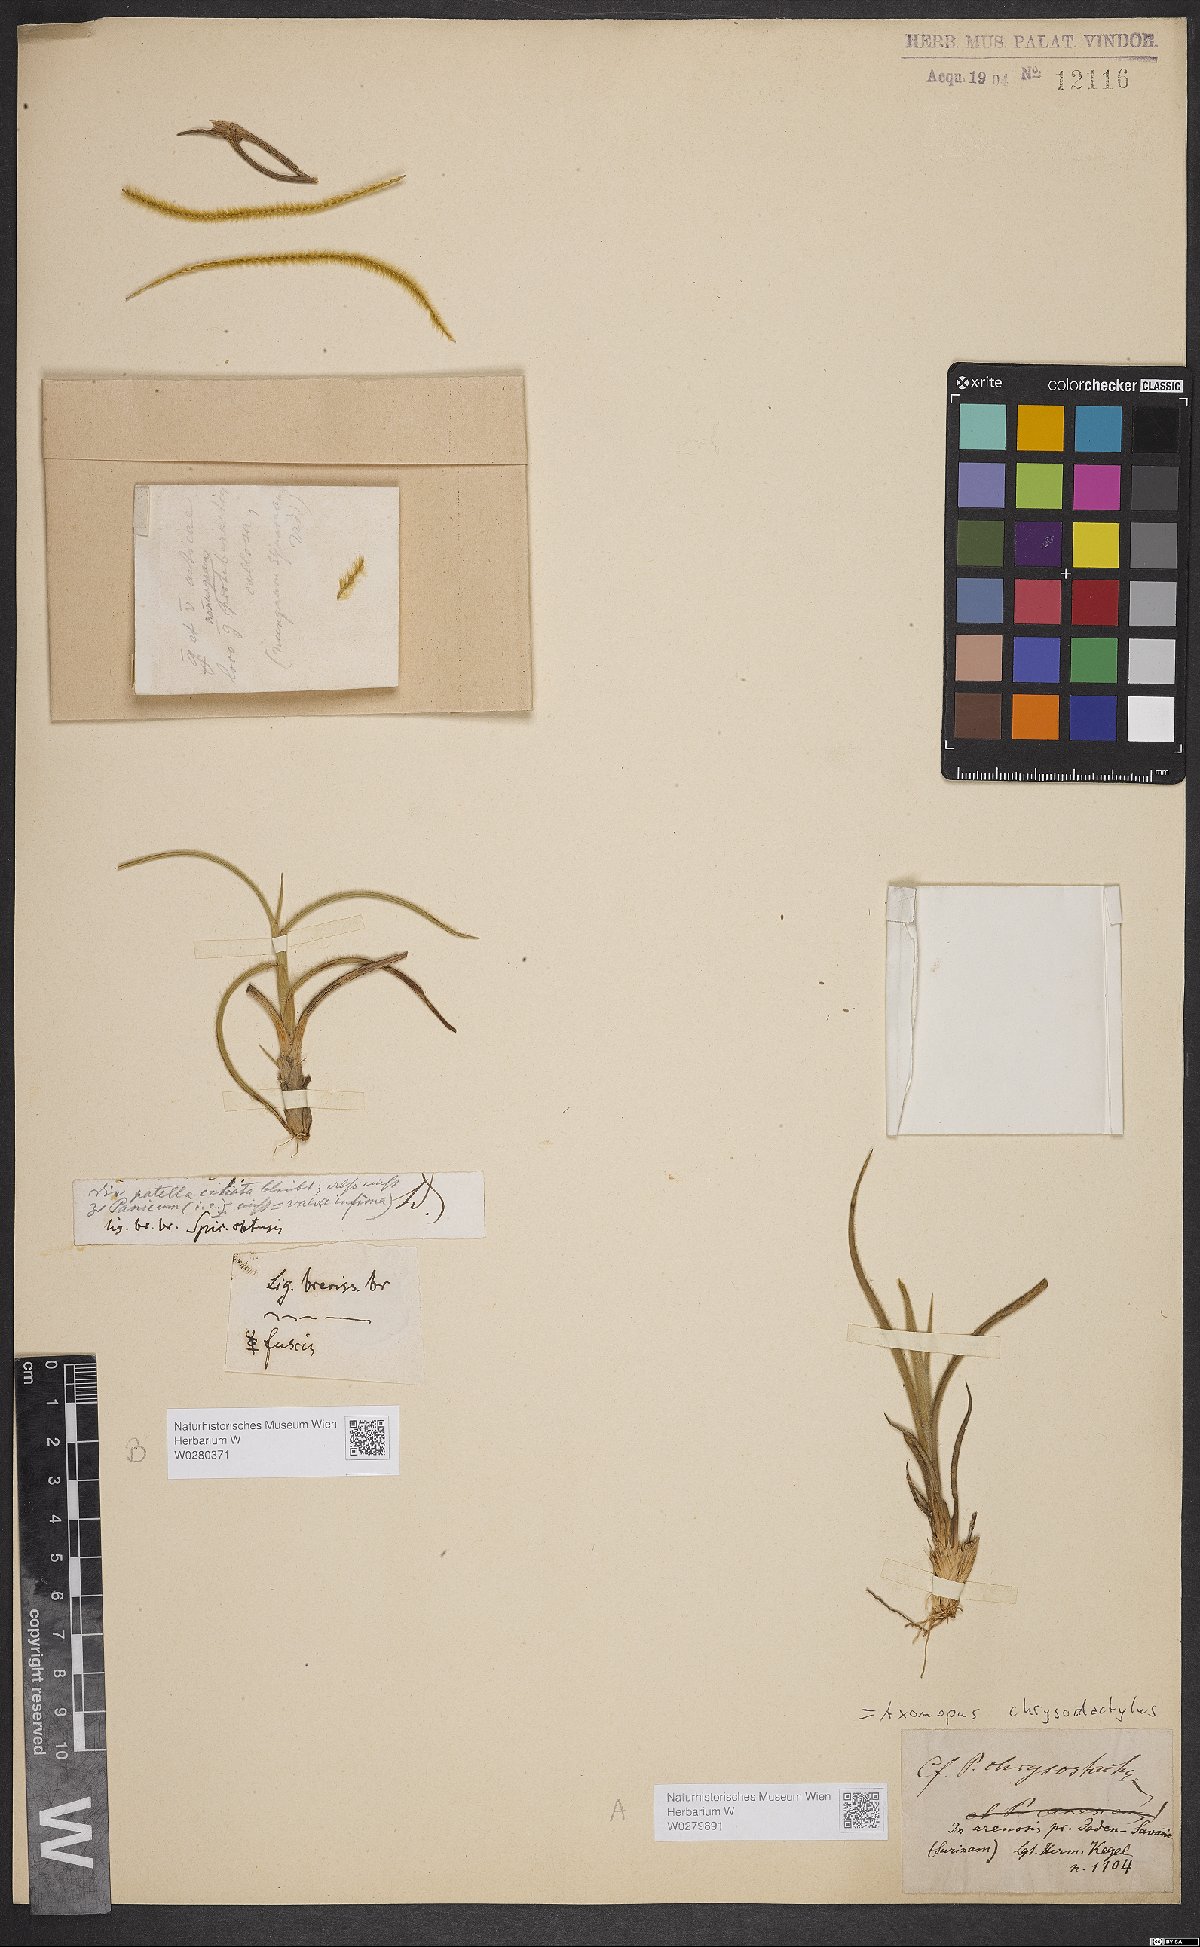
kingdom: Plantae
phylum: Tracheophyta
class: Liliopsida
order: Poales
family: Poaceae
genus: Axonopus
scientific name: Axonopus aureus
